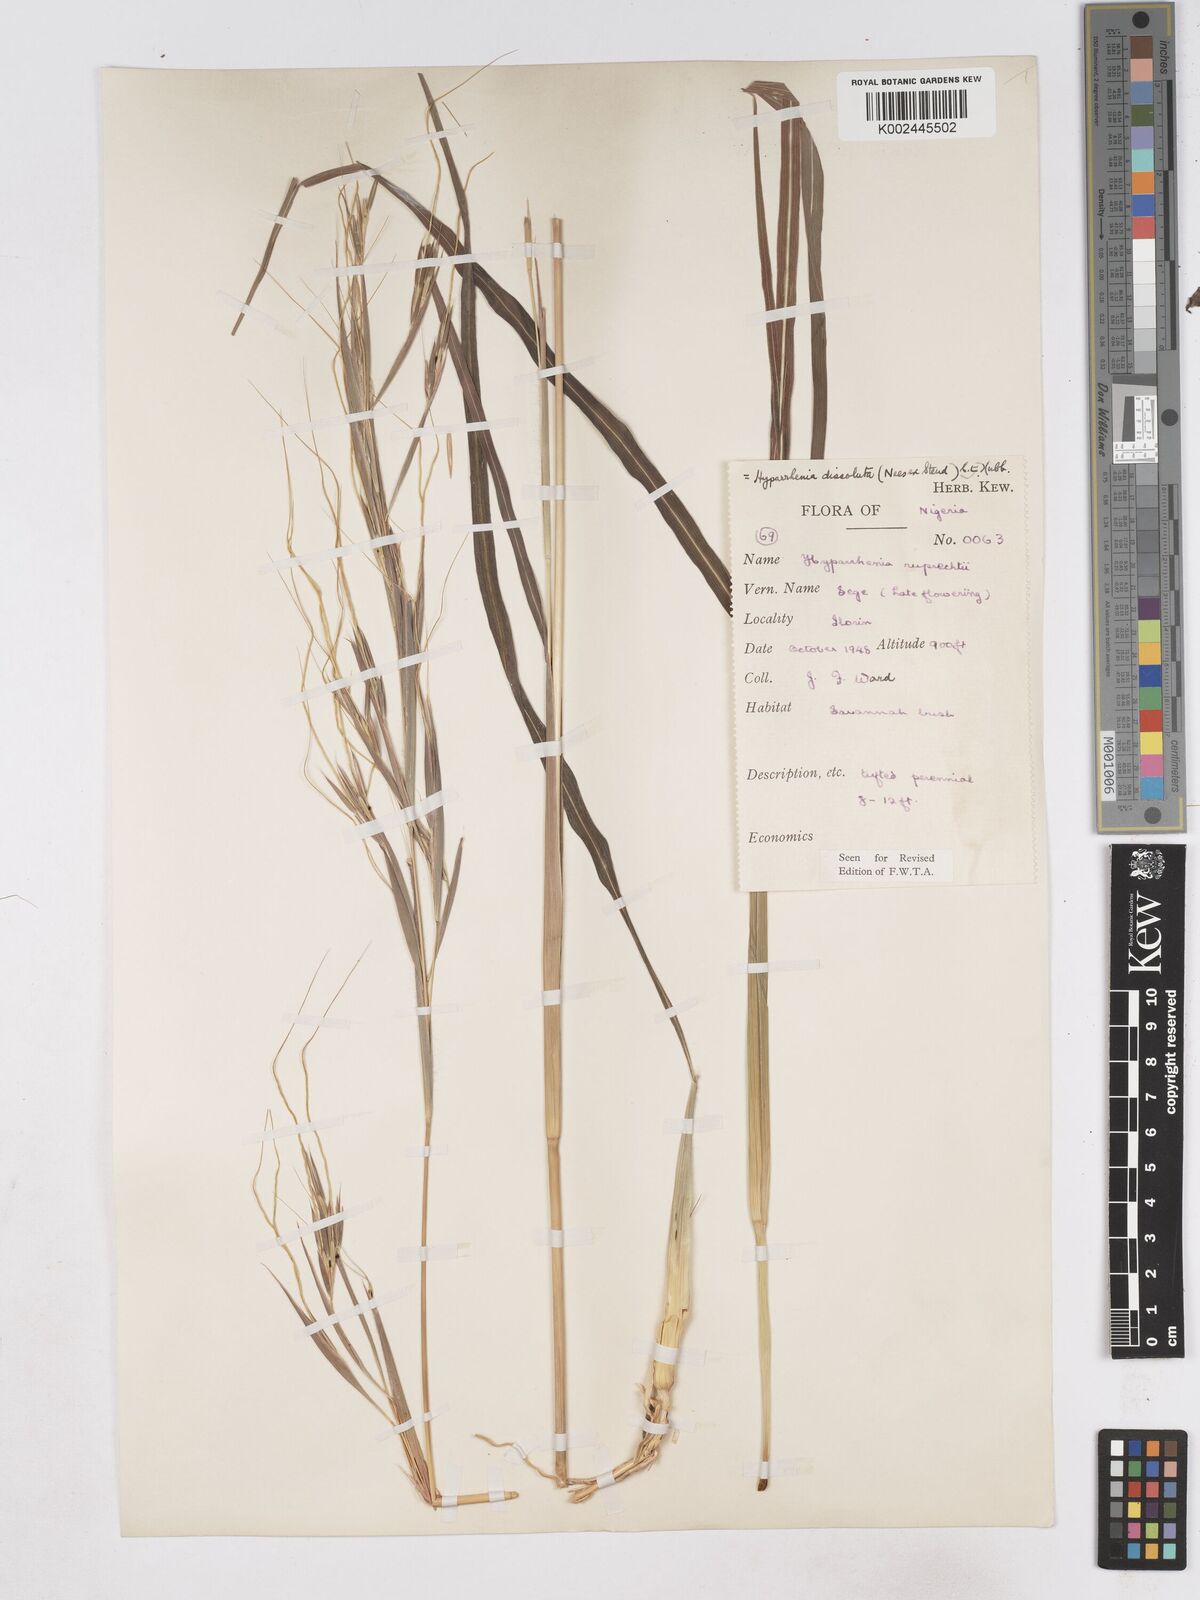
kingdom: Plantae
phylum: Tracheophyta
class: Liliopsida
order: Poales
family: Poaceae
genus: Hyperthelia
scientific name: Hyperthelia dissoluta
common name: Yellow thatching grass
